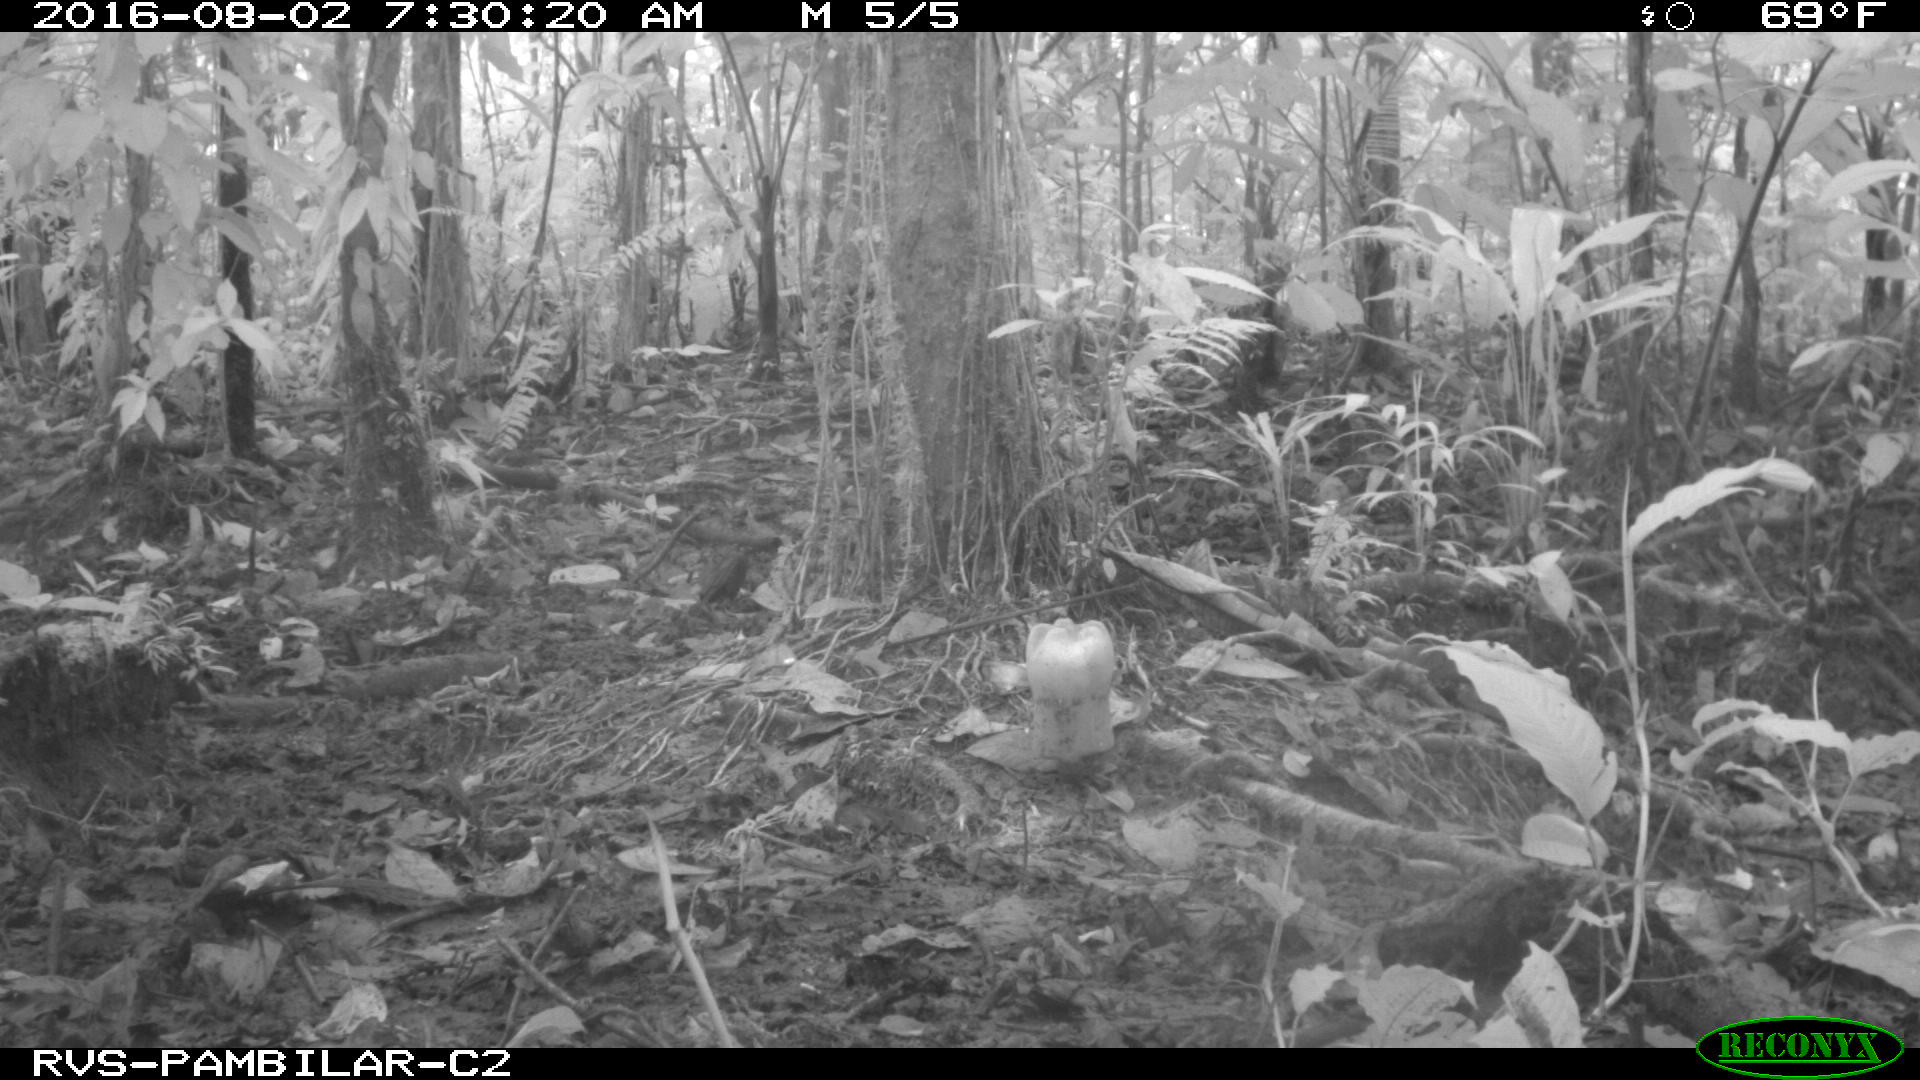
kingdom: Animalia
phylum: Chordata
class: Mammalia
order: Artiodactyla
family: Tayassuidae
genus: Pecari
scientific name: Pecari tajacu
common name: Collared peccary
